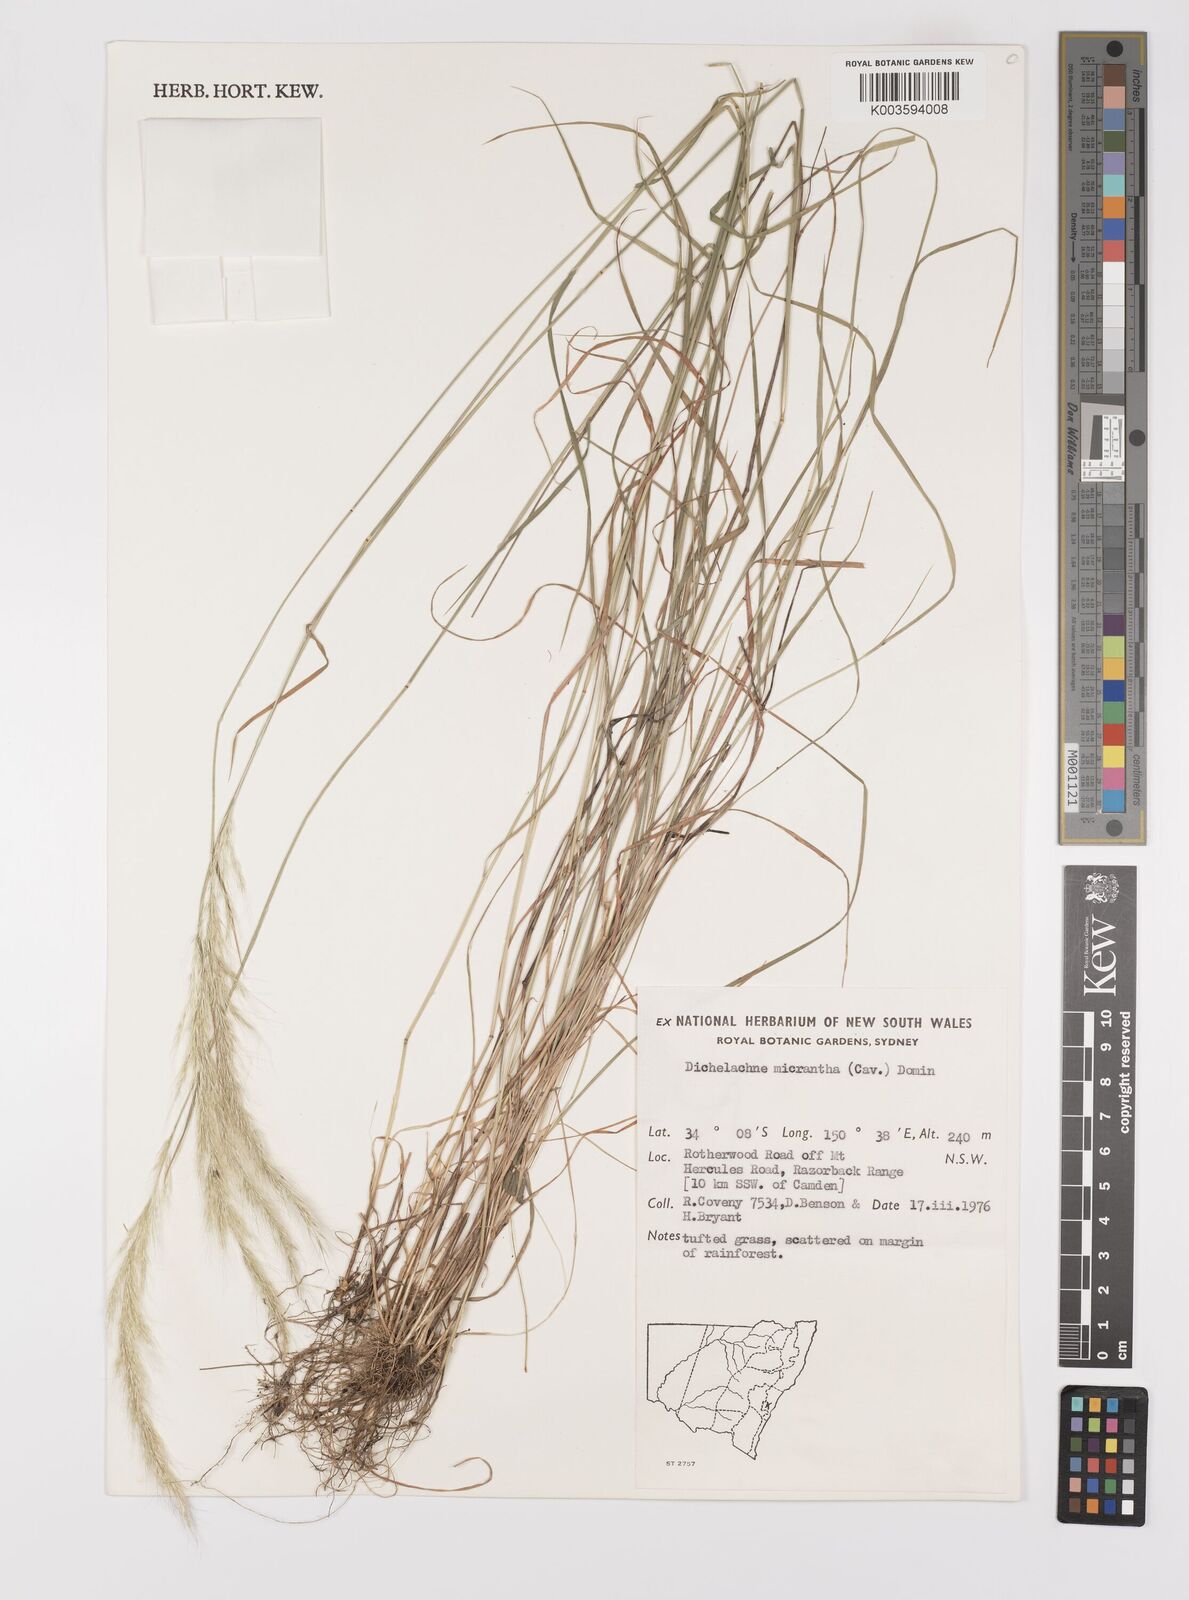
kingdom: Plantae
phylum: Tracheophyta
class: Liliopsida
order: Poales
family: Poaceae
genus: Dichelachne
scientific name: Dichelachne micrantha
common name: Plumegrass
